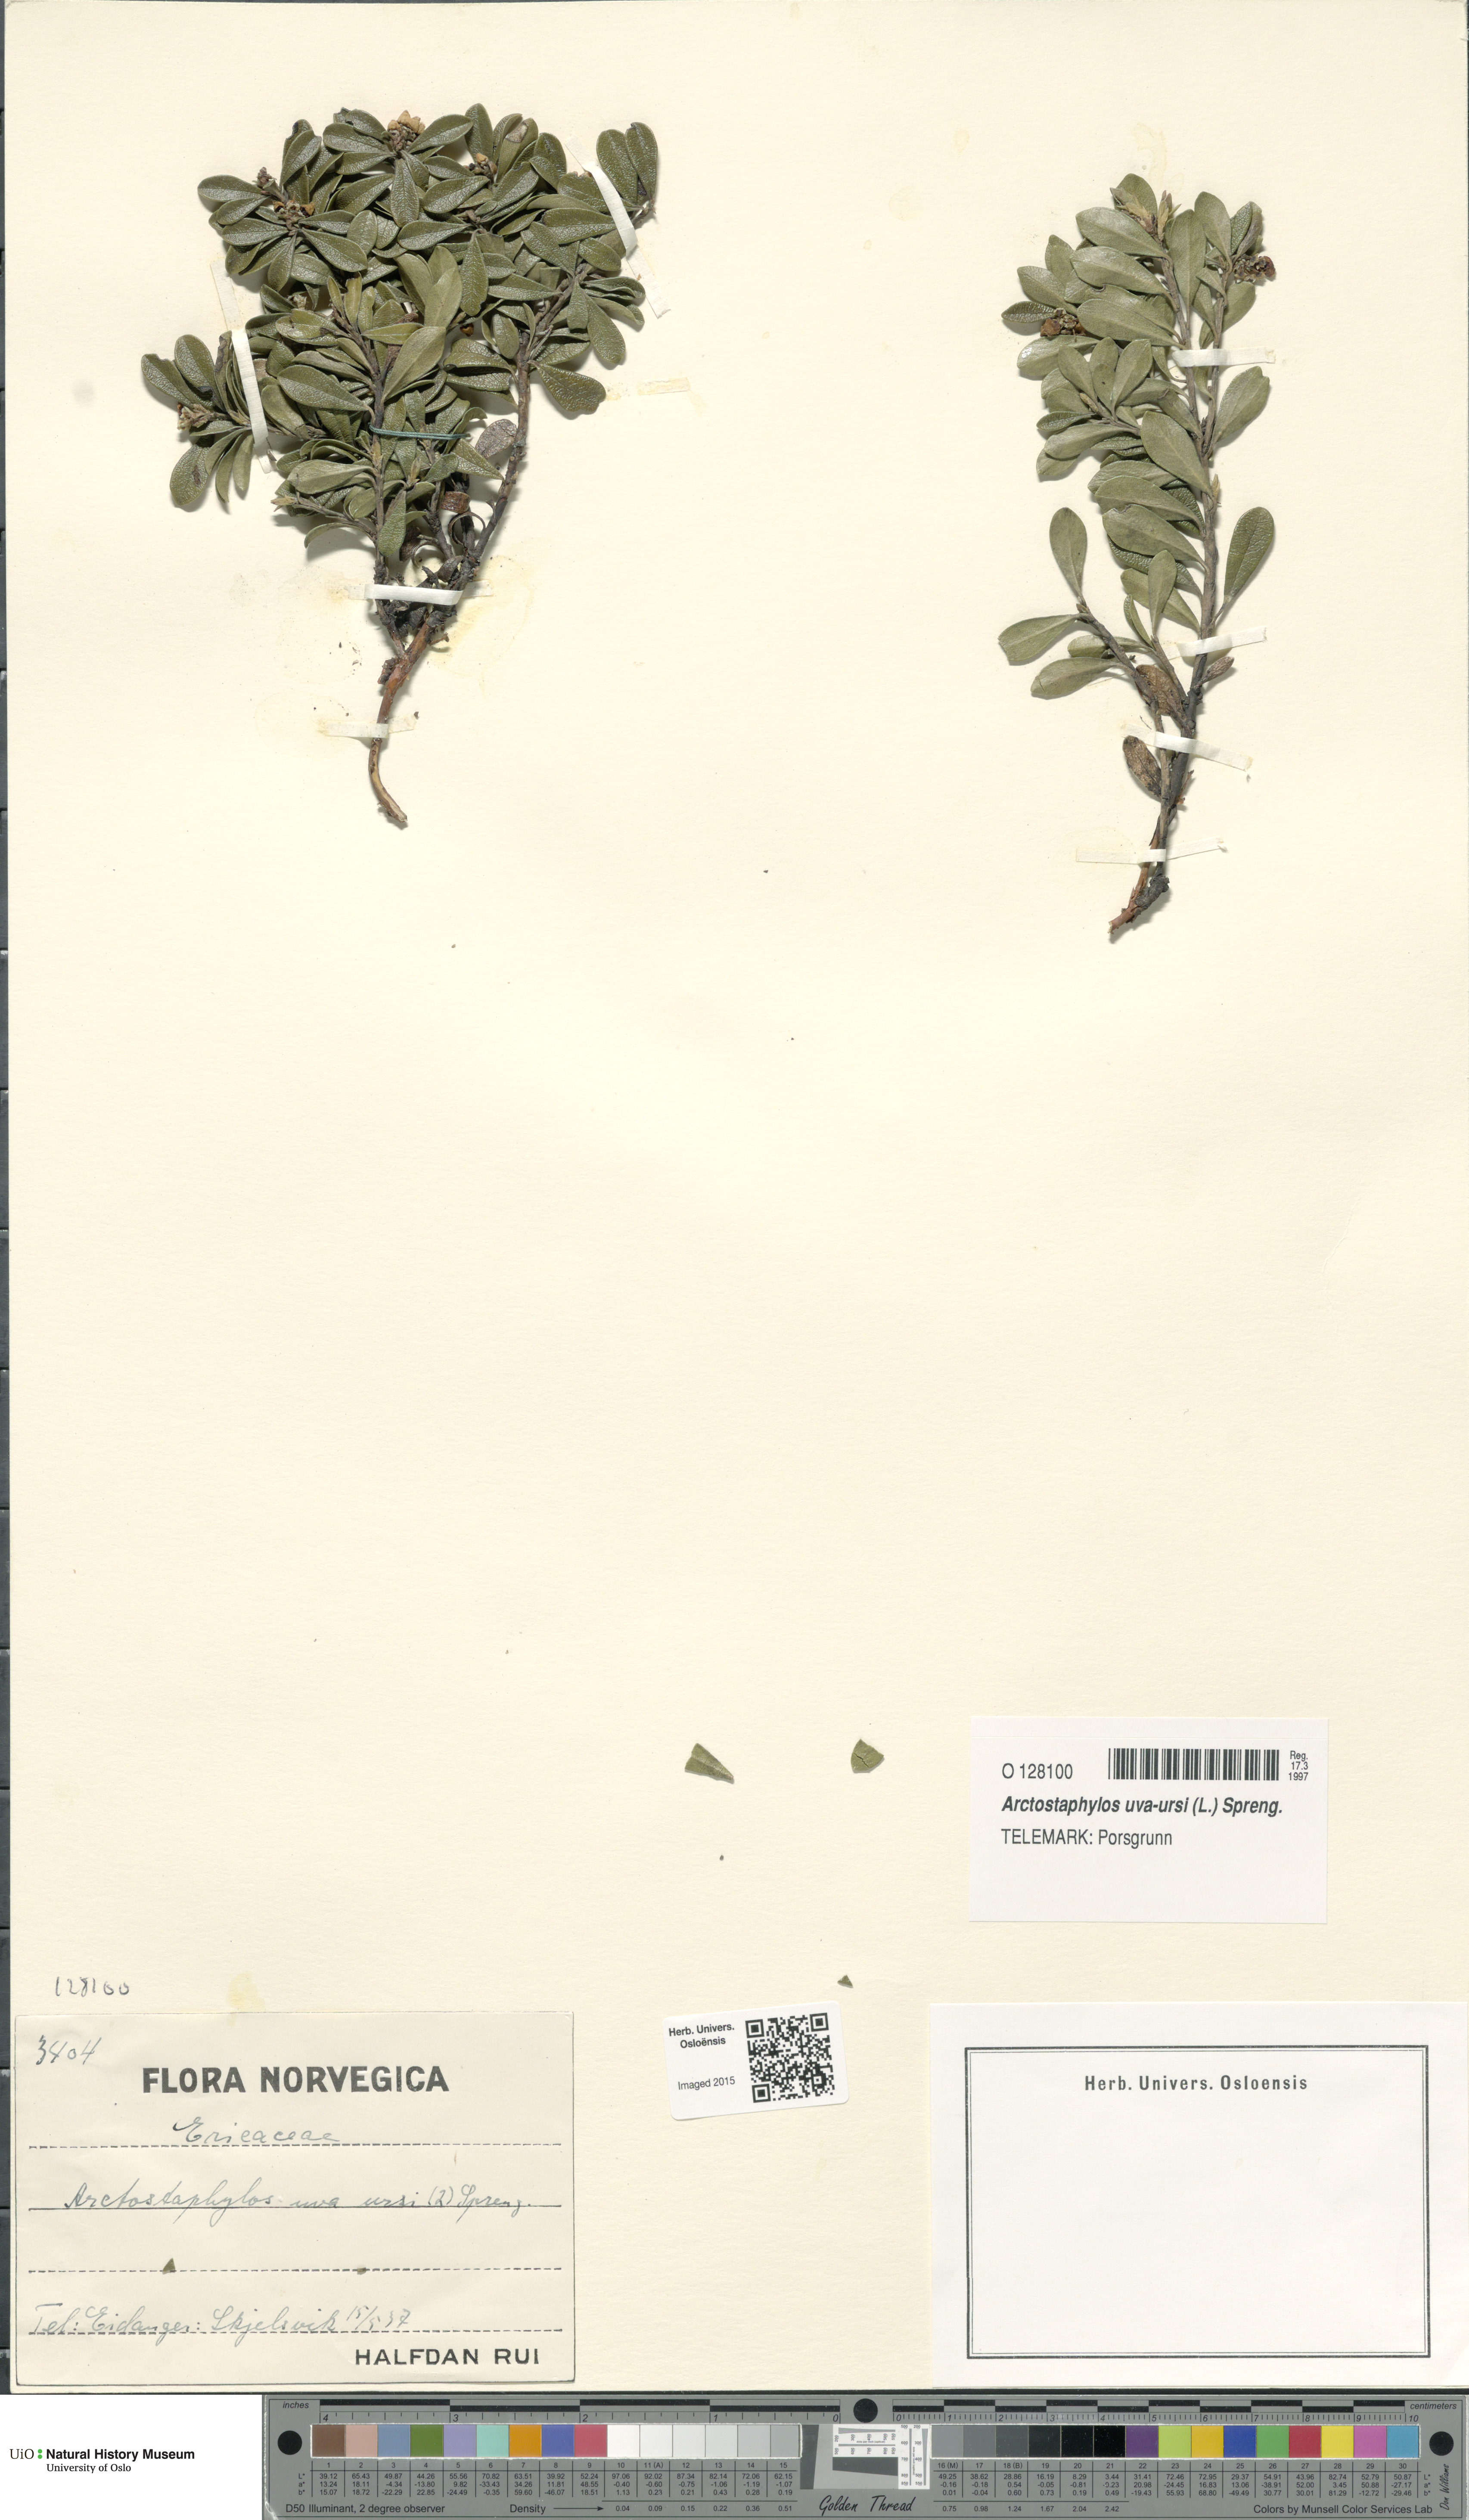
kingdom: Plantae
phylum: Tracheophyta
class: Magnoliopsida
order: Ericales
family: Ericaceae
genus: Arctostaphylos
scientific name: Arctostaphylos uva-ursi
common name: Bearberry
